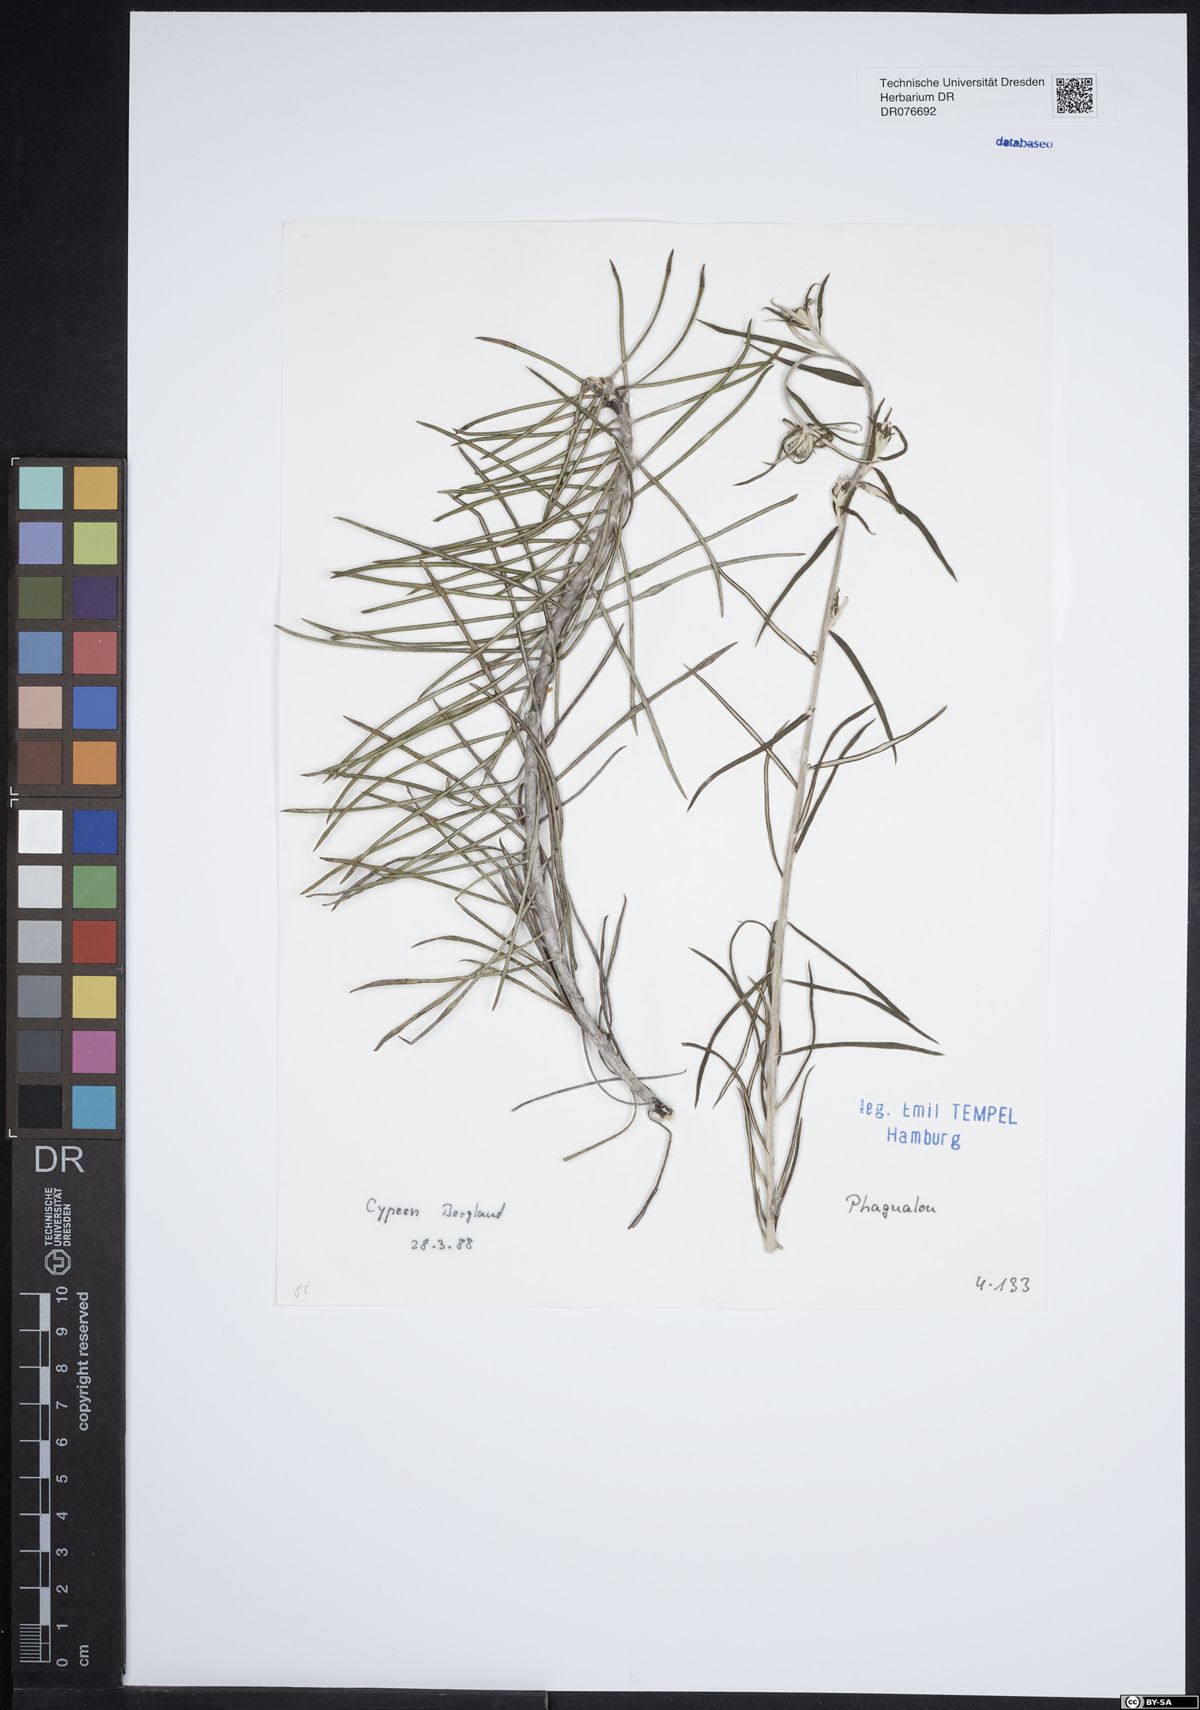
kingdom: Plantae
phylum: Tracheophyta
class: Magnoliopsida
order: Asterales
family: Asteraceae
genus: Phagnalon
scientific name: Phagnalon
